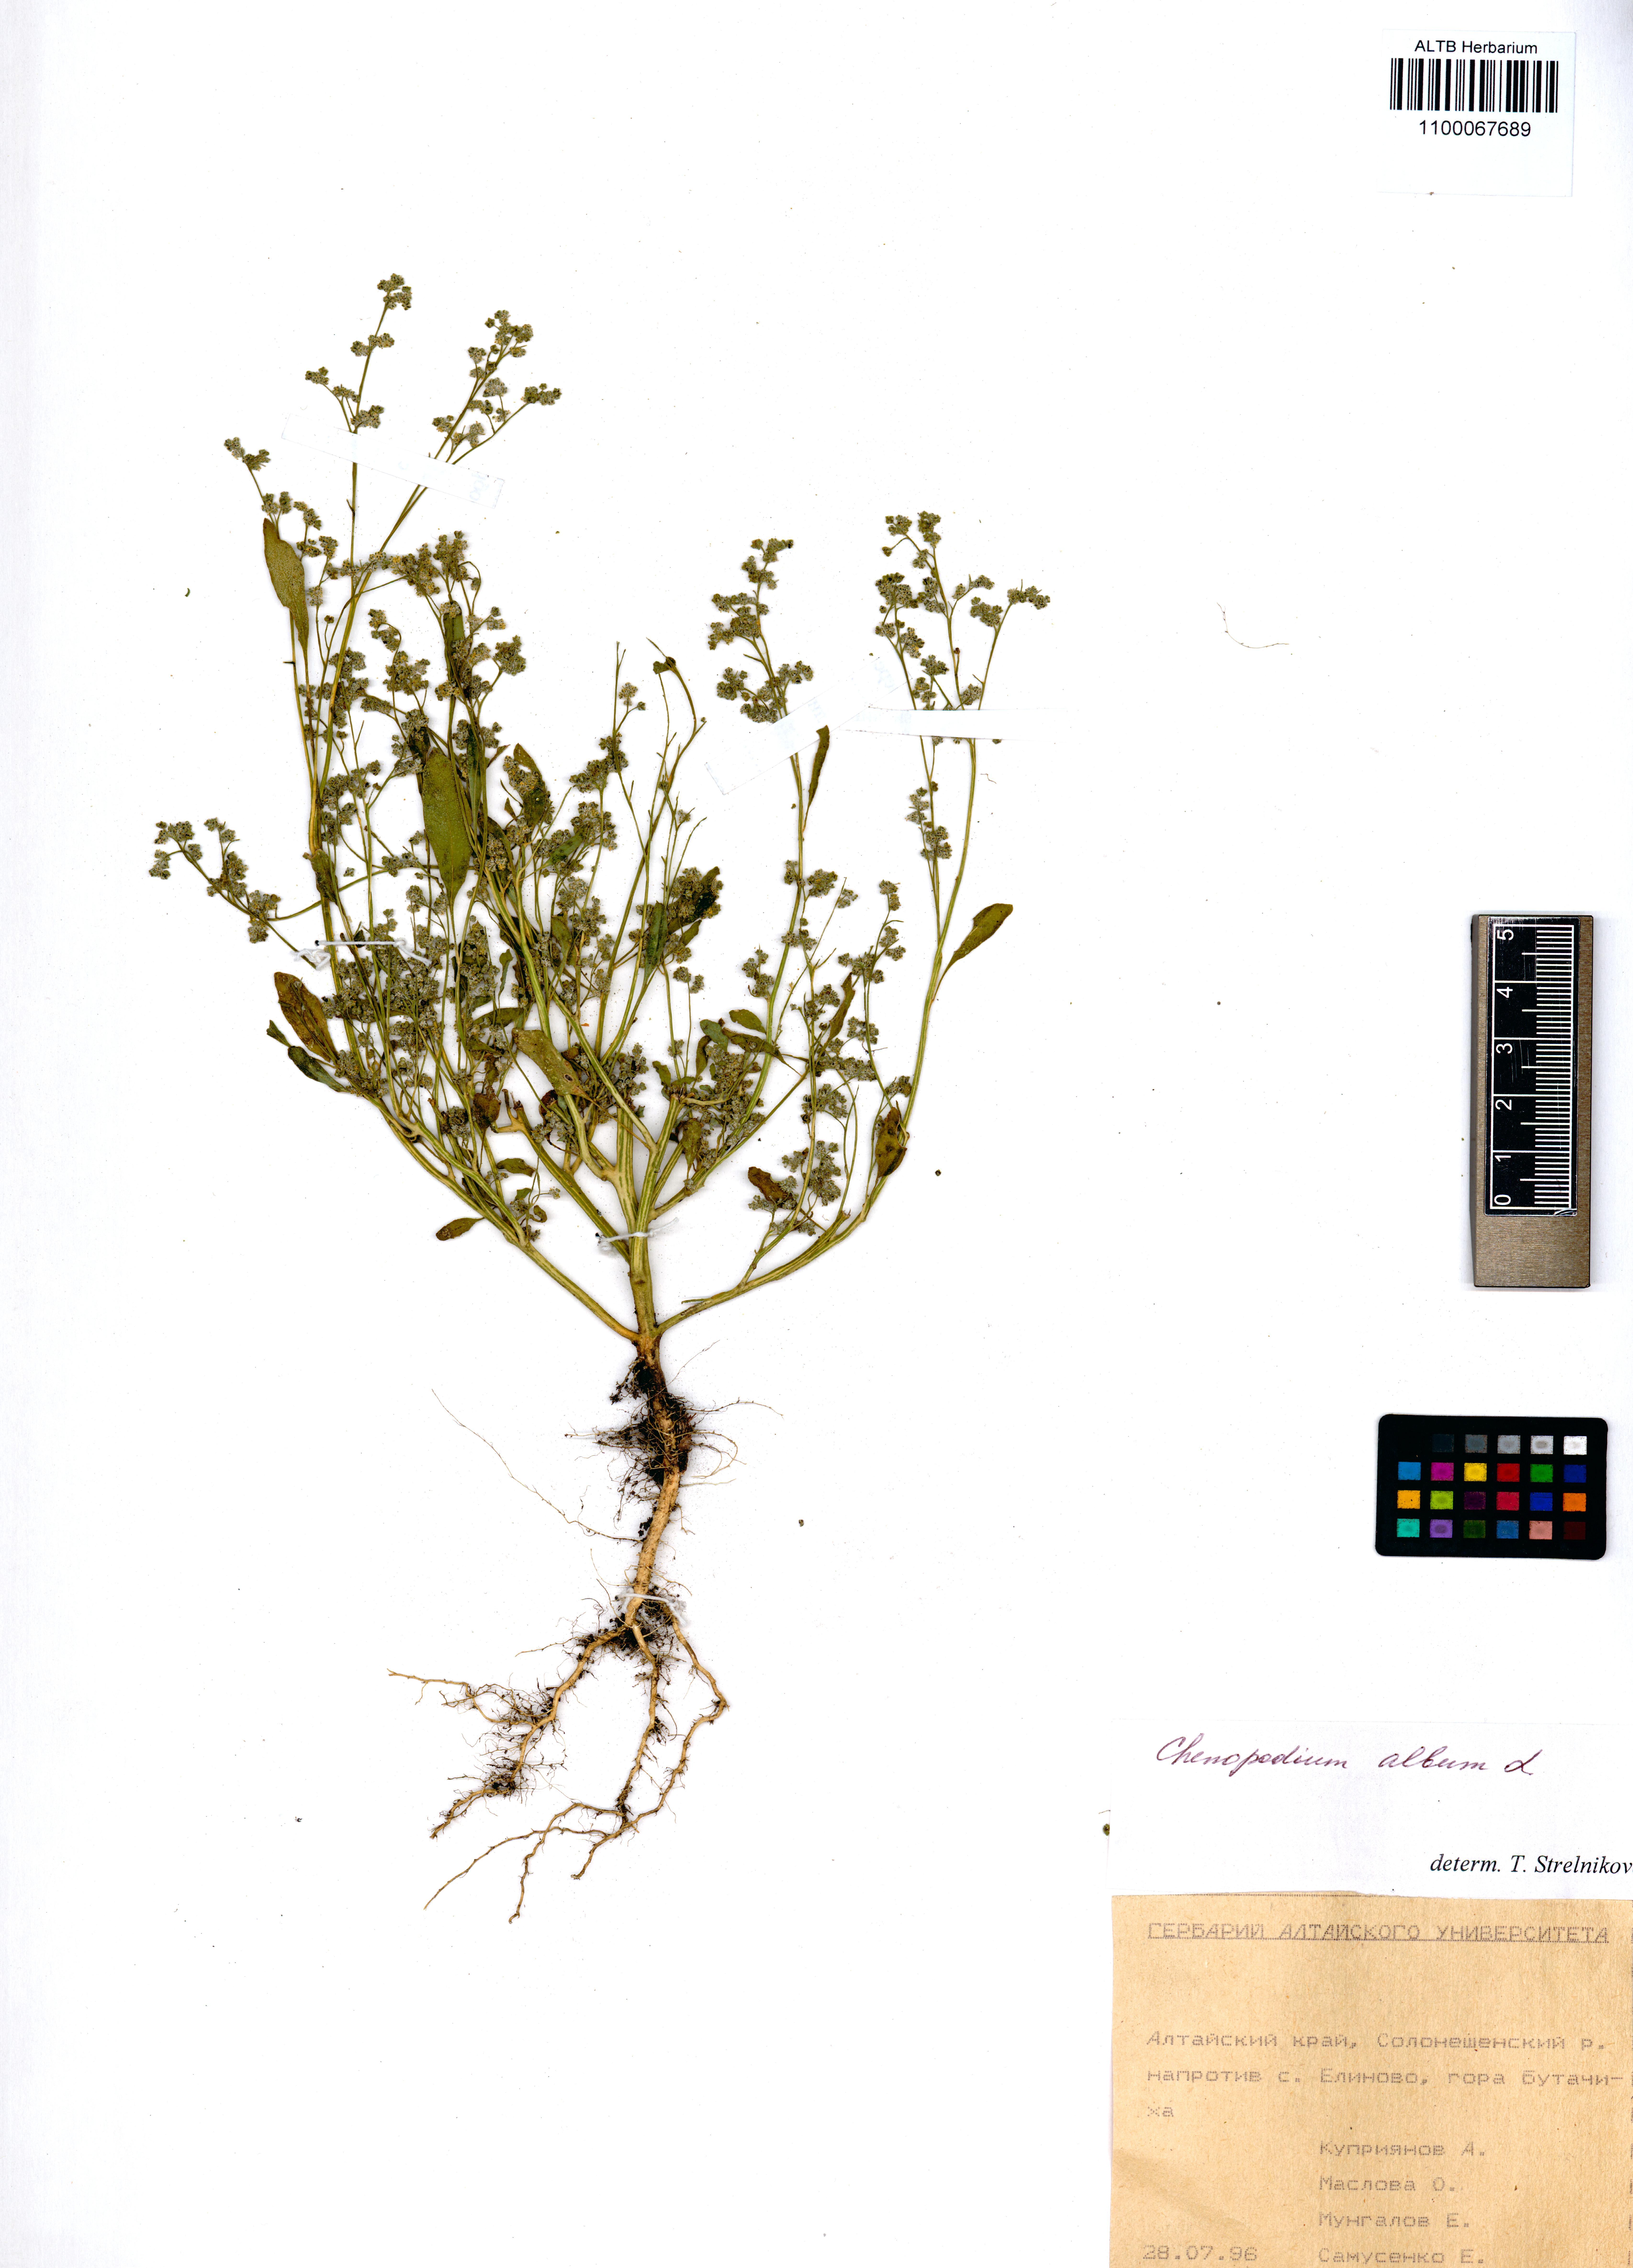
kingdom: Plantae
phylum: Tracheophyta
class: Magnoliopsida
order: Caryophyllales
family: Amaranthaceae
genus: Chenopodium
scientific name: Chenopodium album
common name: Fat-hen
